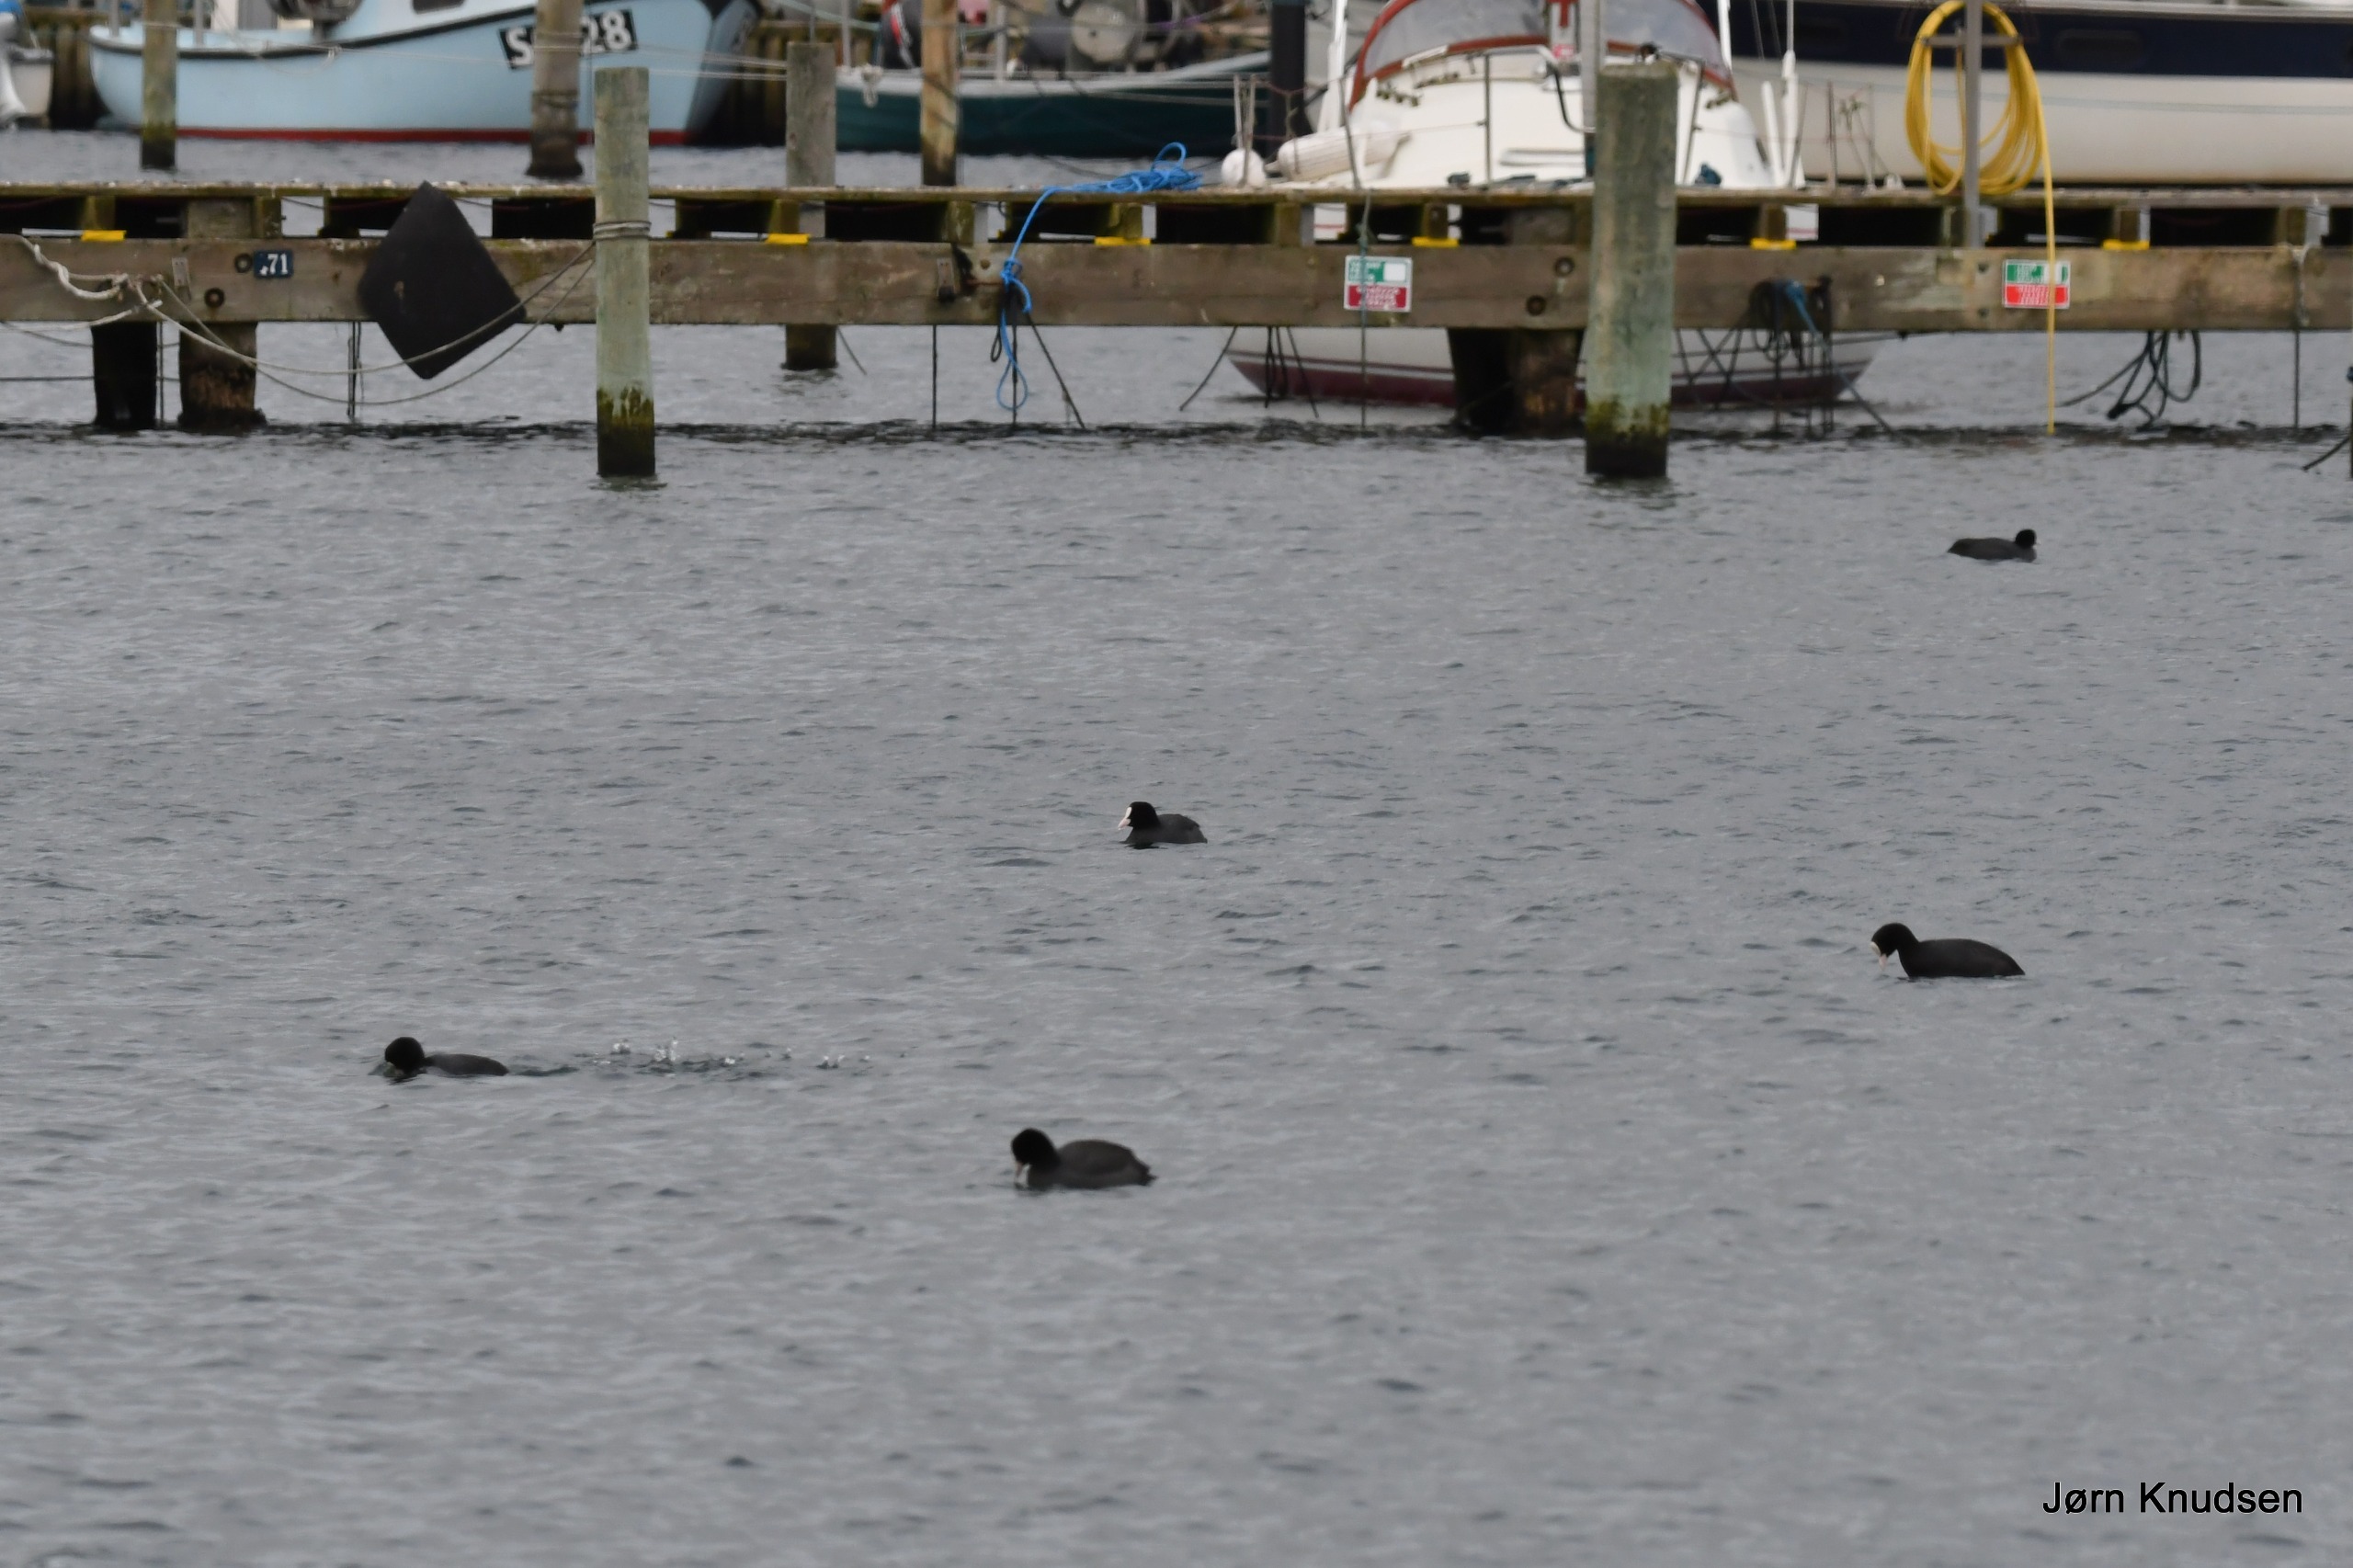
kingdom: Animalia
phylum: Chordata
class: Aves
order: Gruiformes
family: Rallidae
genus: Fulica
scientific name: Fulica atra
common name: Blishøne
